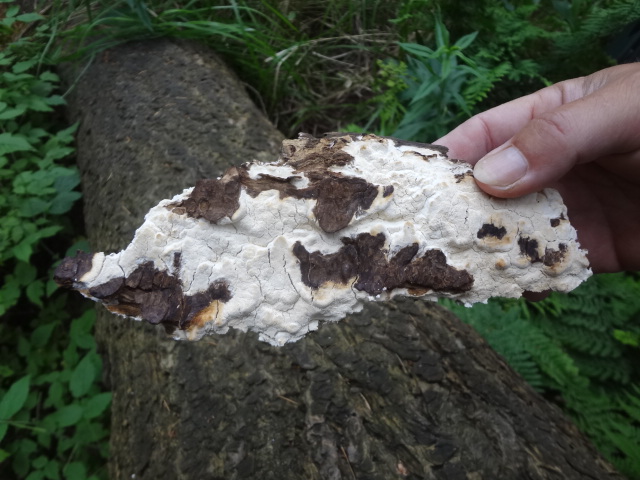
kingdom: Fungi
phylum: Basidiomycota
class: Agaricomycetes
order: Polyporales
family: Fomitopsidaceae
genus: Daedalea
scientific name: Daedalea xantha
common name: gul sejporesvamp
